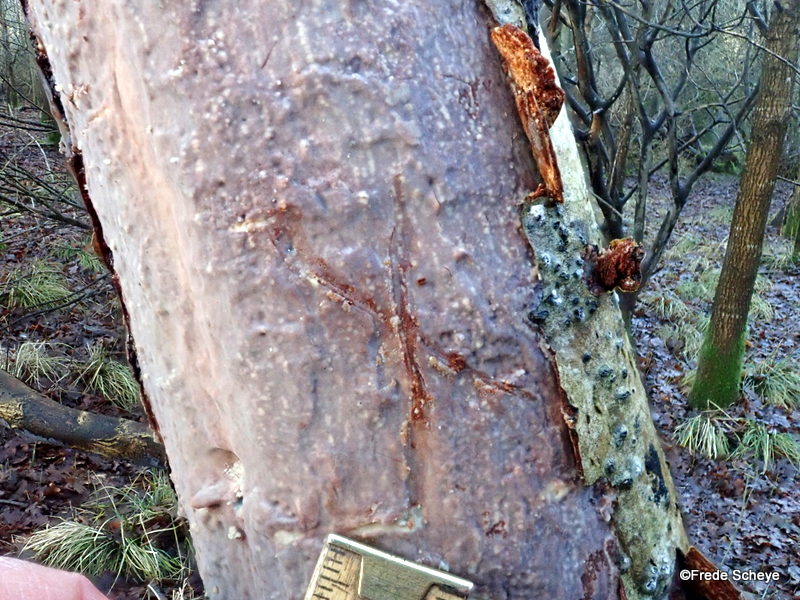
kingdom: Fungi
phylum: Basidiomycota
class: Agaricomycetes
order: Corticiales
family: Vuilleminiaceae
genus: Vuilleminia
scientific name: Vuilleminia comedens
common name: almindelig barksprænger
